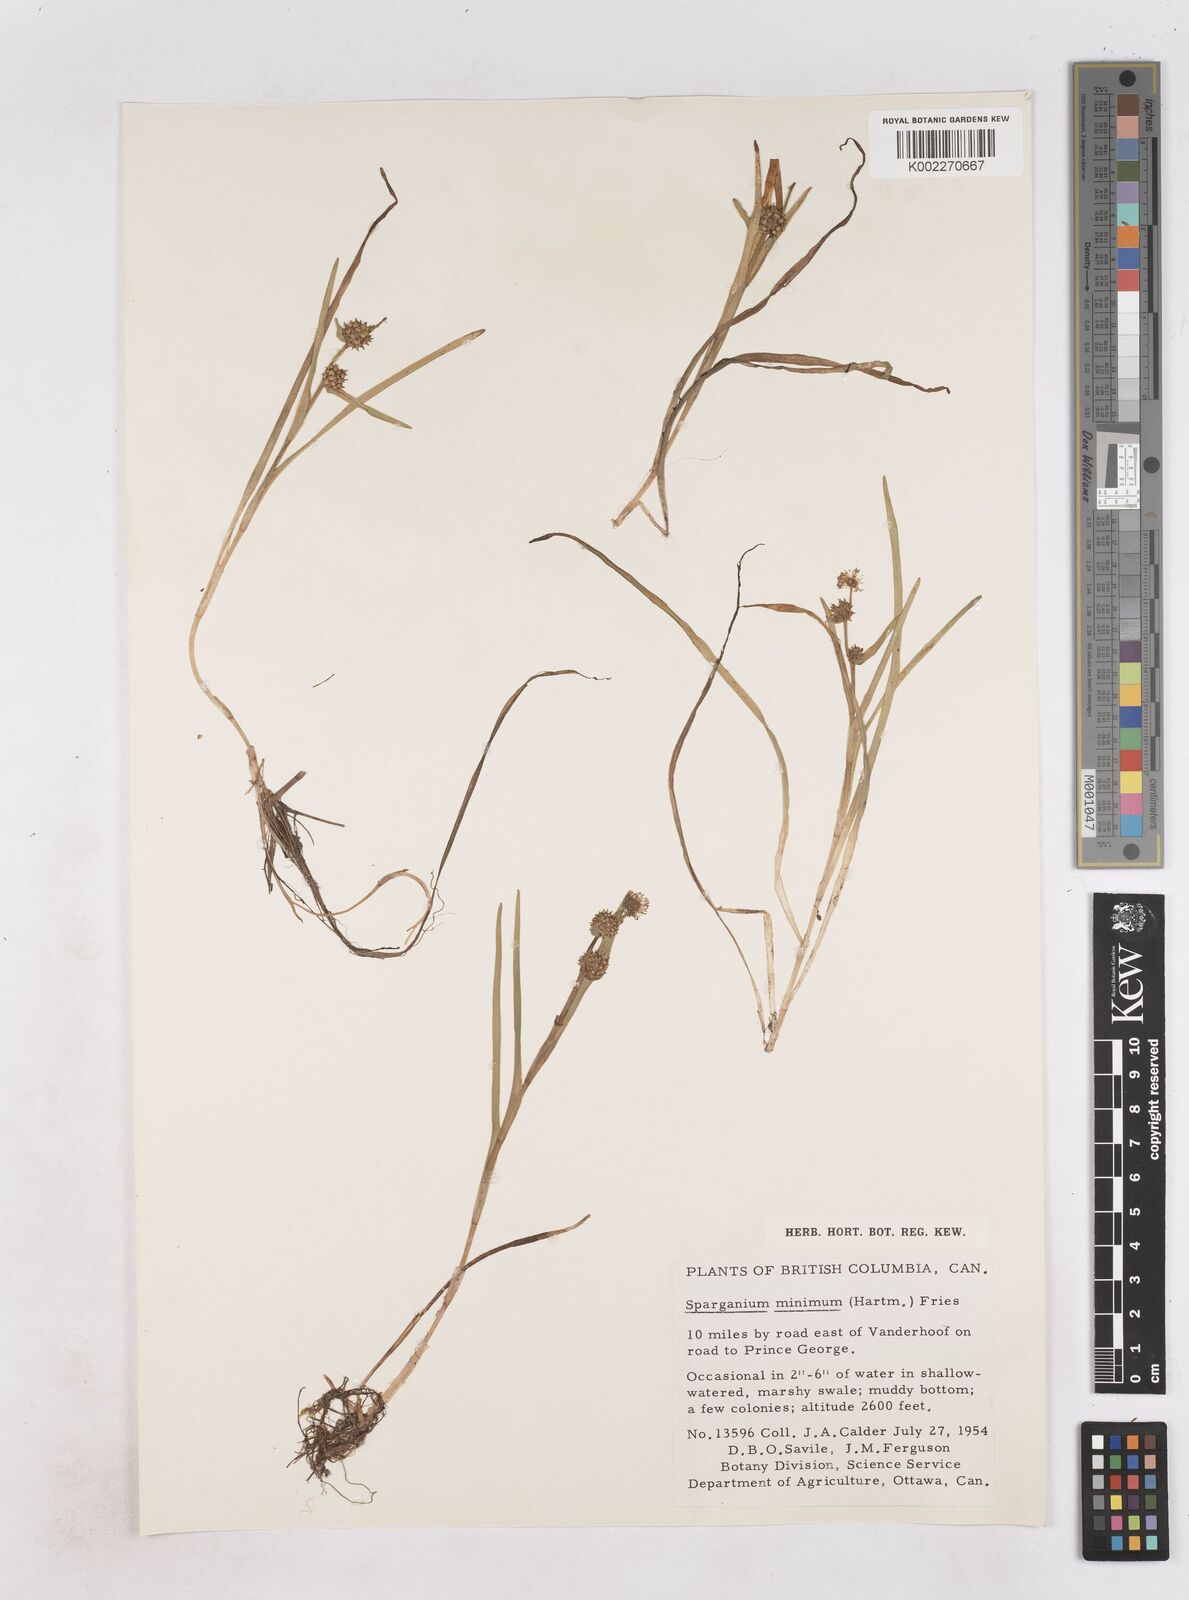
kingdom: Plantae
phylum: Tracheophyta
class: Liliopsida
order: Poales
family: Typhaceae
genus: Sparganium
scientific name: Sparganium natans
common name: Least bur-reed
